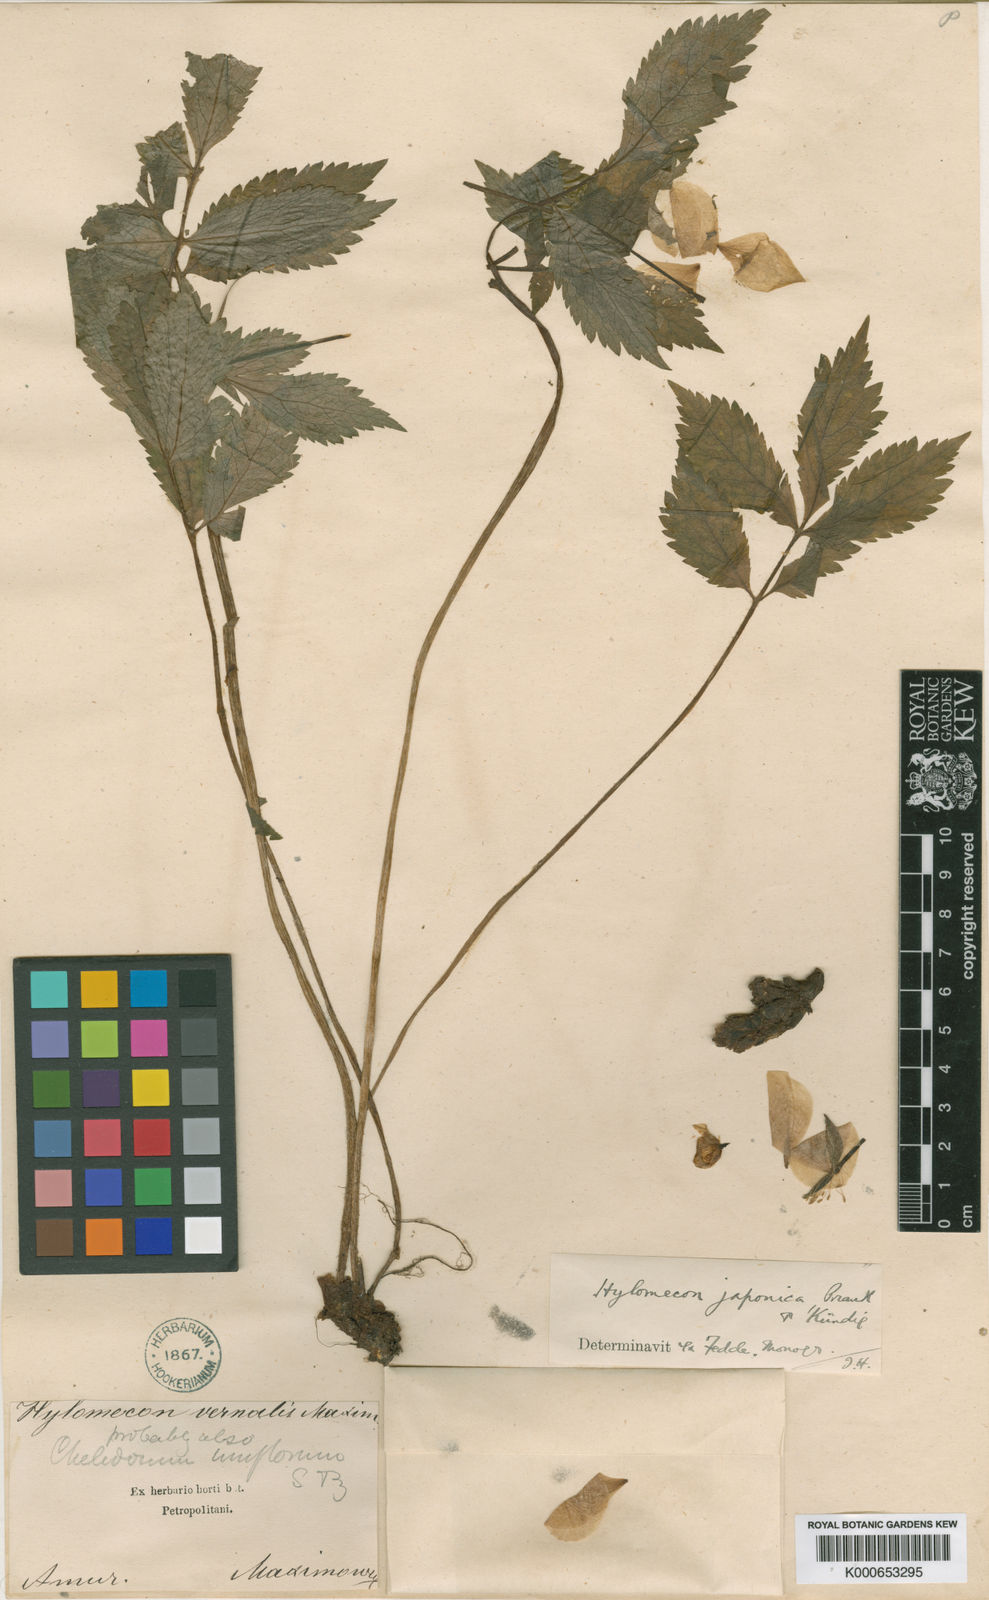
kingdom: Plantae
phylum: Tracheophyta
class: Magnoliopsida
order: Ranunculales
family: Papaveraceae
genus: Hylomecon
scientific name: Hylomecon
